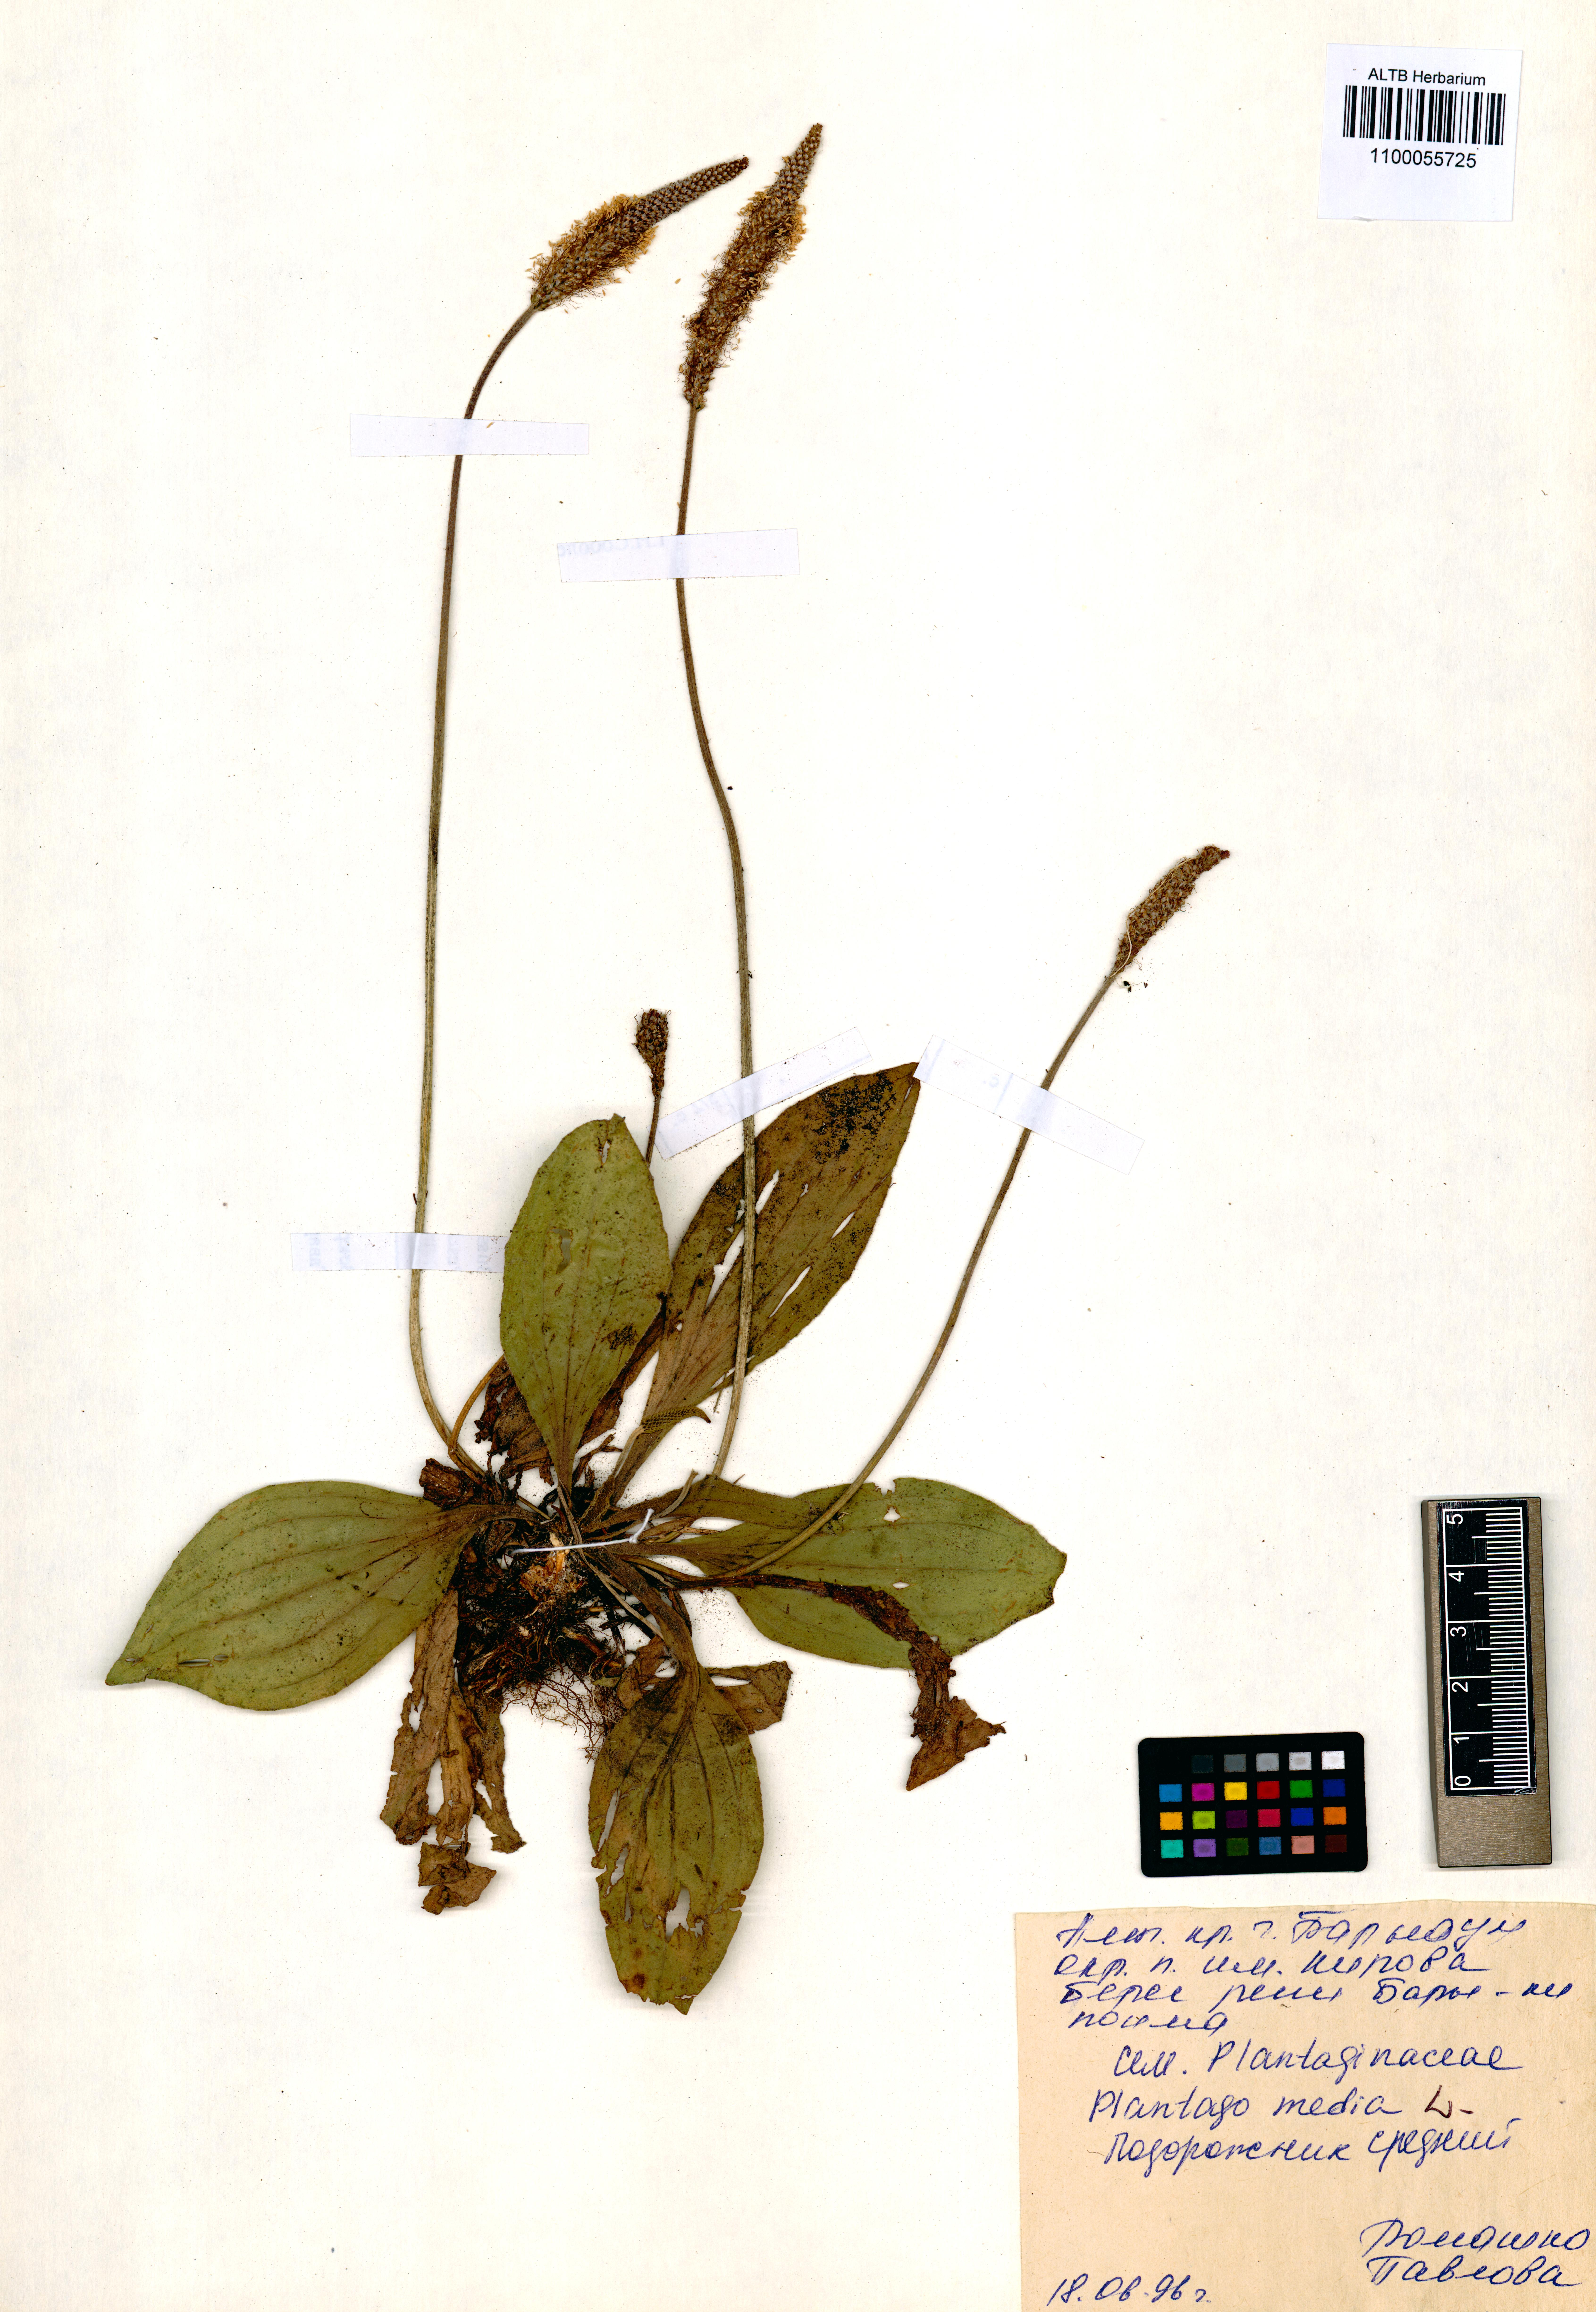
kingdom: Plantae
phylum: Tracheophyta
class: Magnoliopsida
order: Lamiales
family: Plantaginaceae
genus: Plantago
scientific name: Plantago media
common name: Hoary plantain
